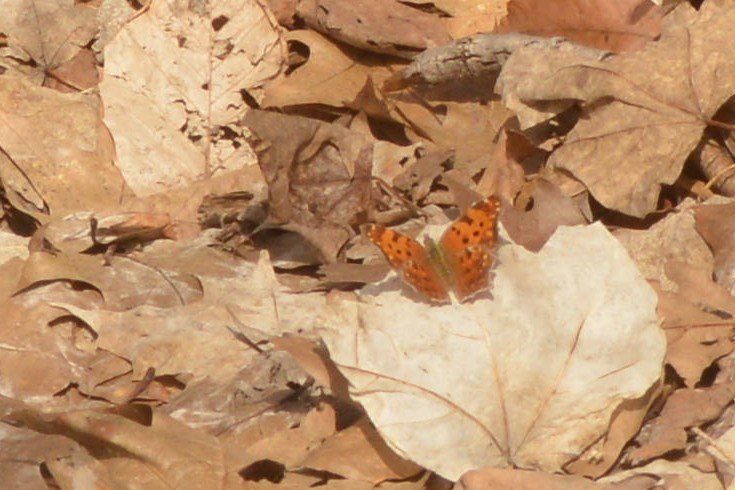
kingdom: Animalia
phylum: Arthropoda
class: Insecta
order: Lepidoptera
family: Nymphalidae
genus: Polygonia
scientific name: Polygonia comma
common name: Eastern Comma
